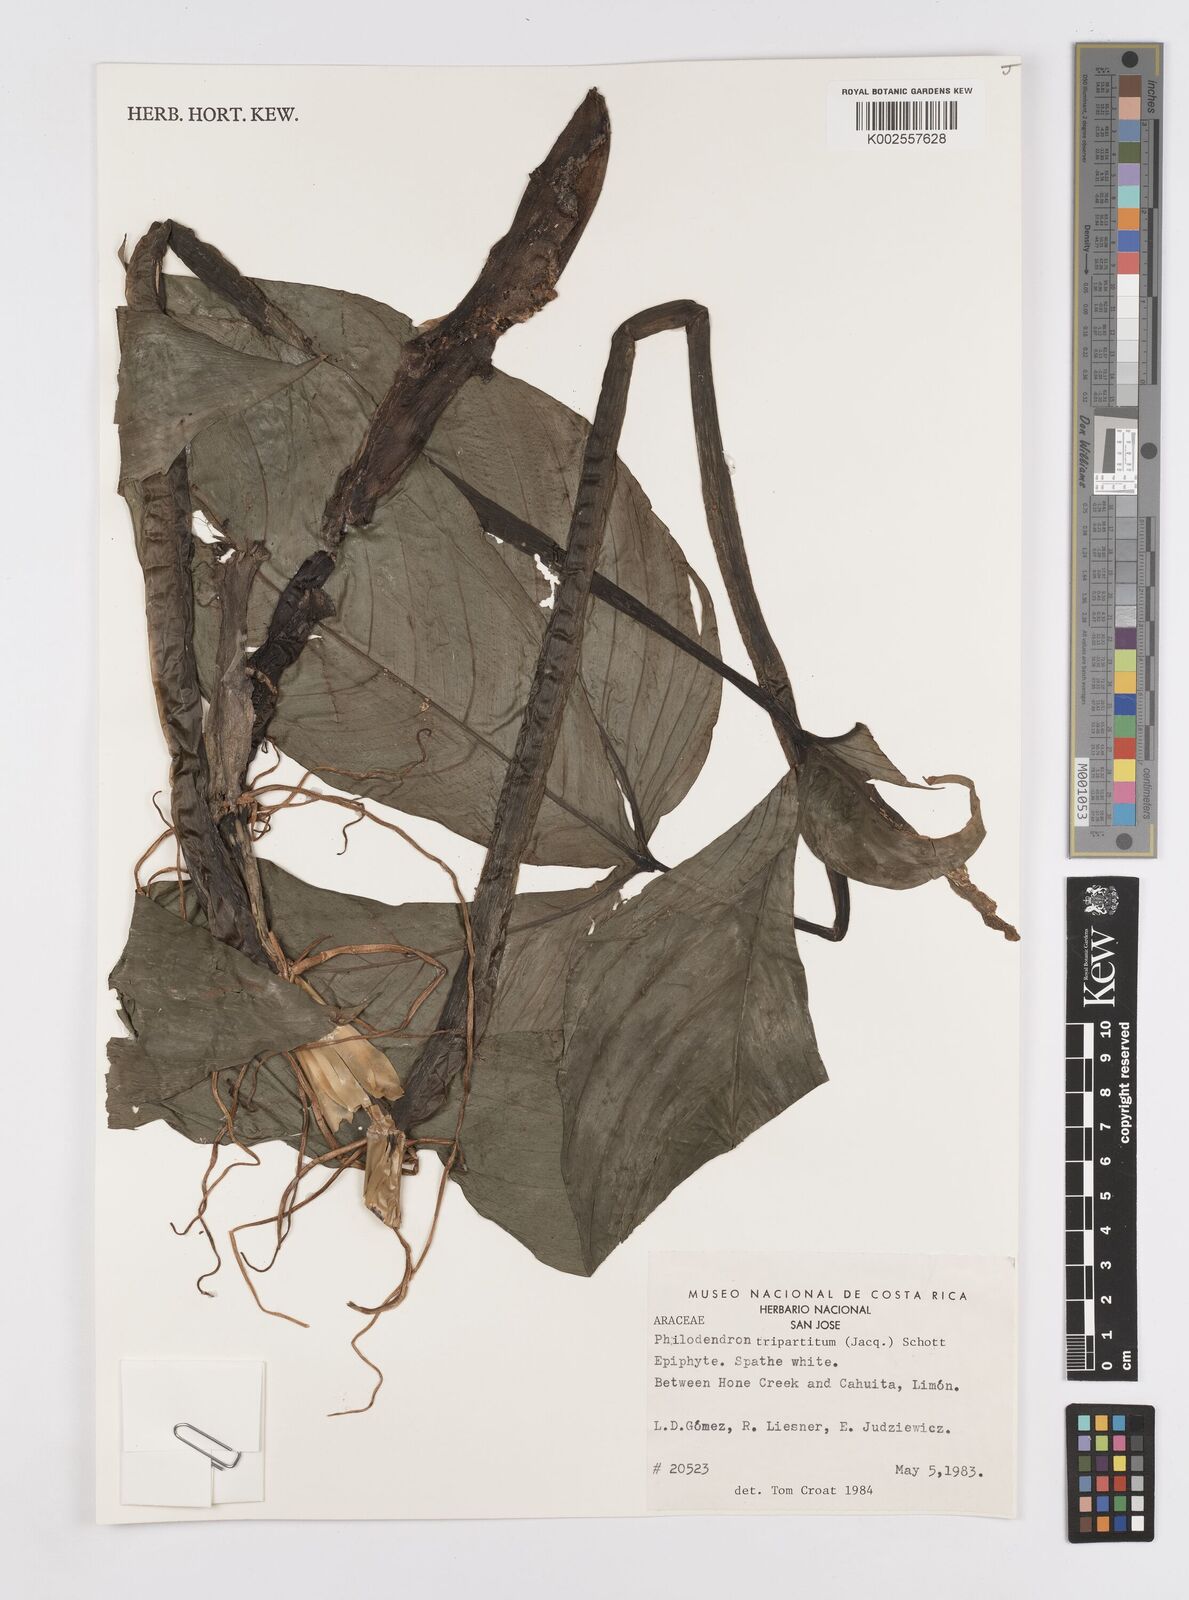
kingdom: Plantae
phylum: Tracheophyta
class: Liliopsida
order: Alismatales
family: Araceae
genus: Philodendron
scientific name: Philodendron tripartitum
